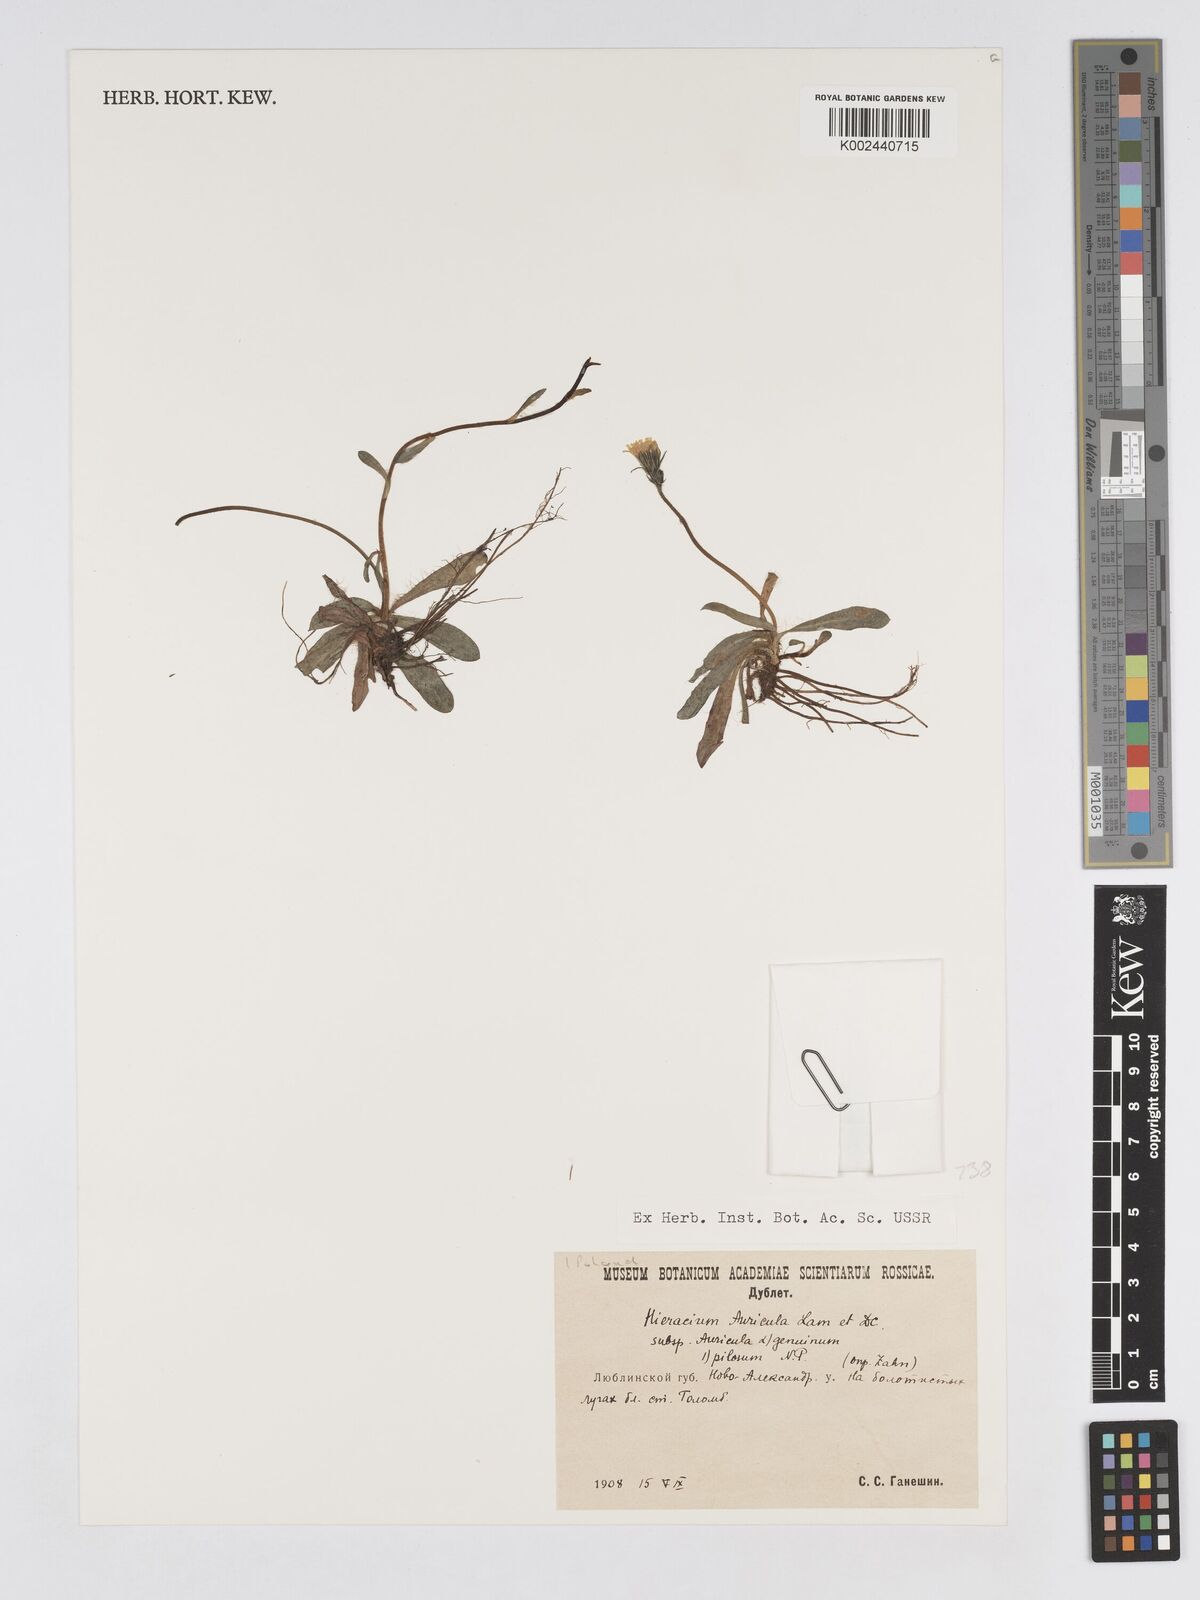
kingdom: Plantae
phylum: Tracheophyta
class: Magnoliopsida
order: Asterales
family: Asteraceae
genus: Pilosella
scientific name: Pilosella floribunda
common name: Glaucous hawkweed
